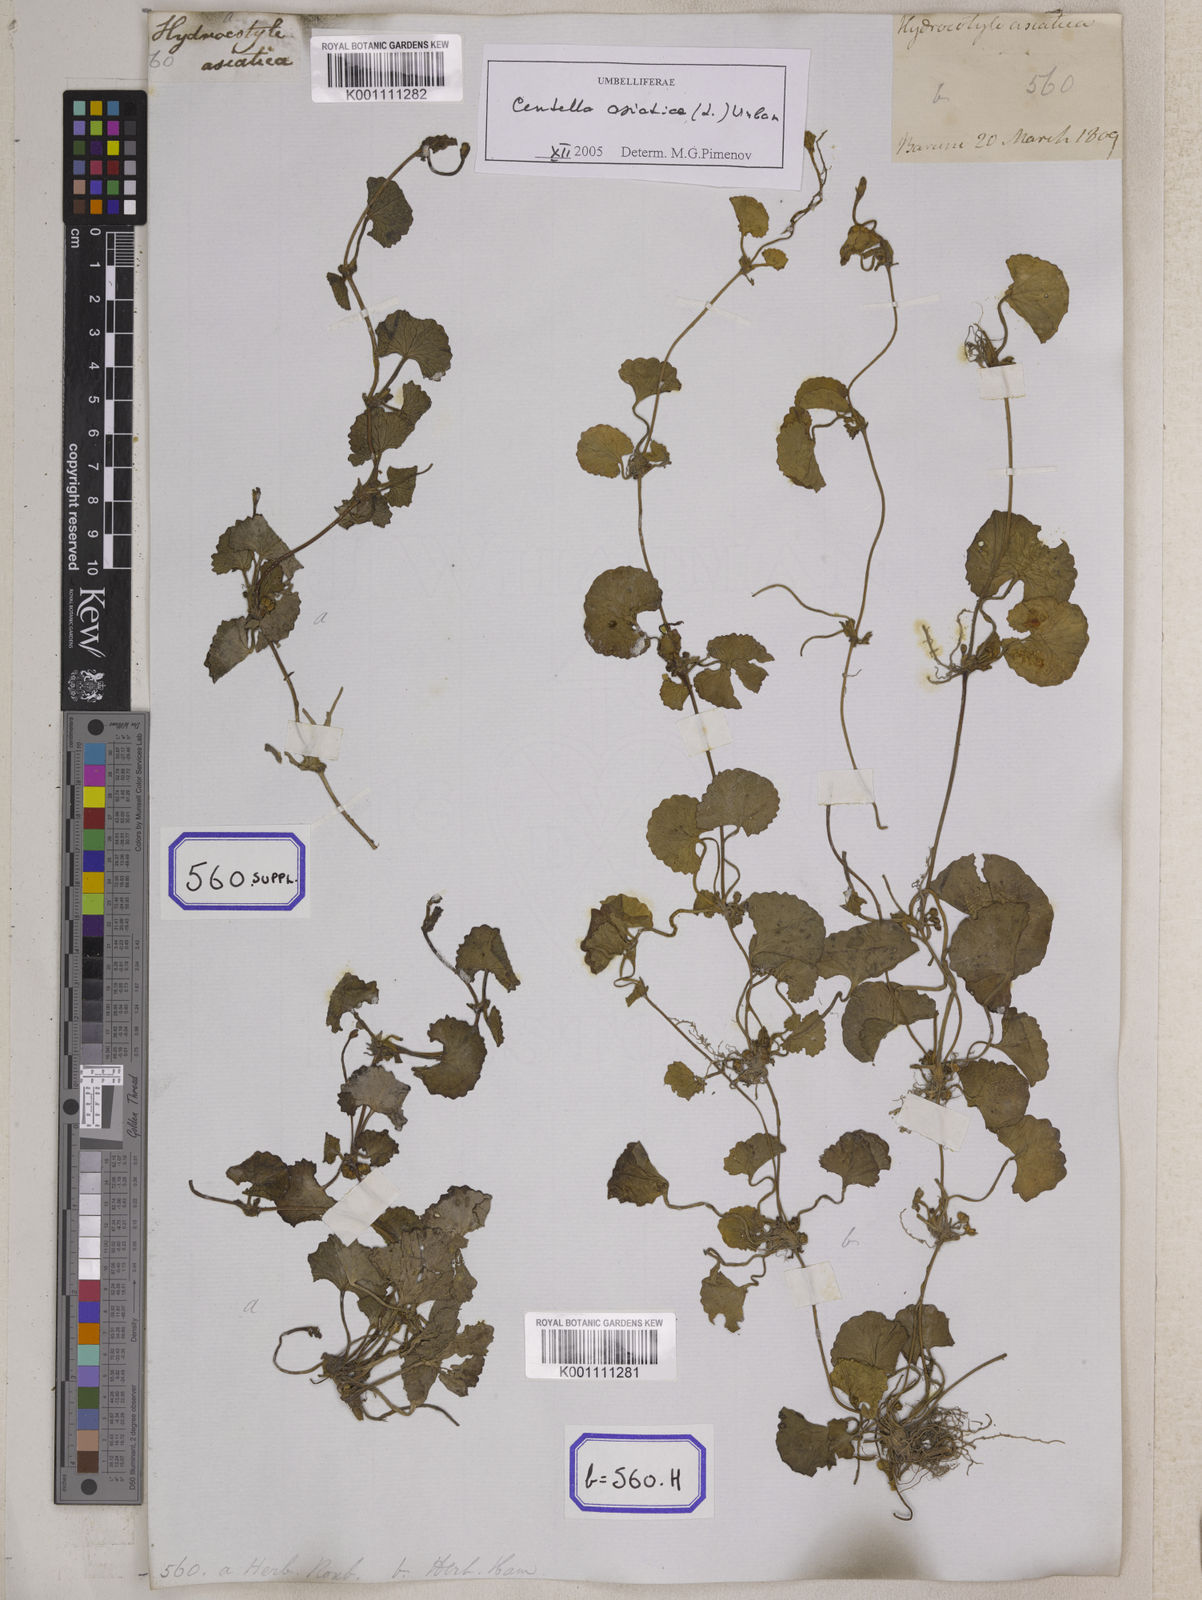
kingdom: Plantae
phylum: Tracheophyta
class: Magnoliopsida
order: Apiales
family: Apiaceae
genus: Centella
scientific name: Centella asiatica
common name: Spadeleaf
